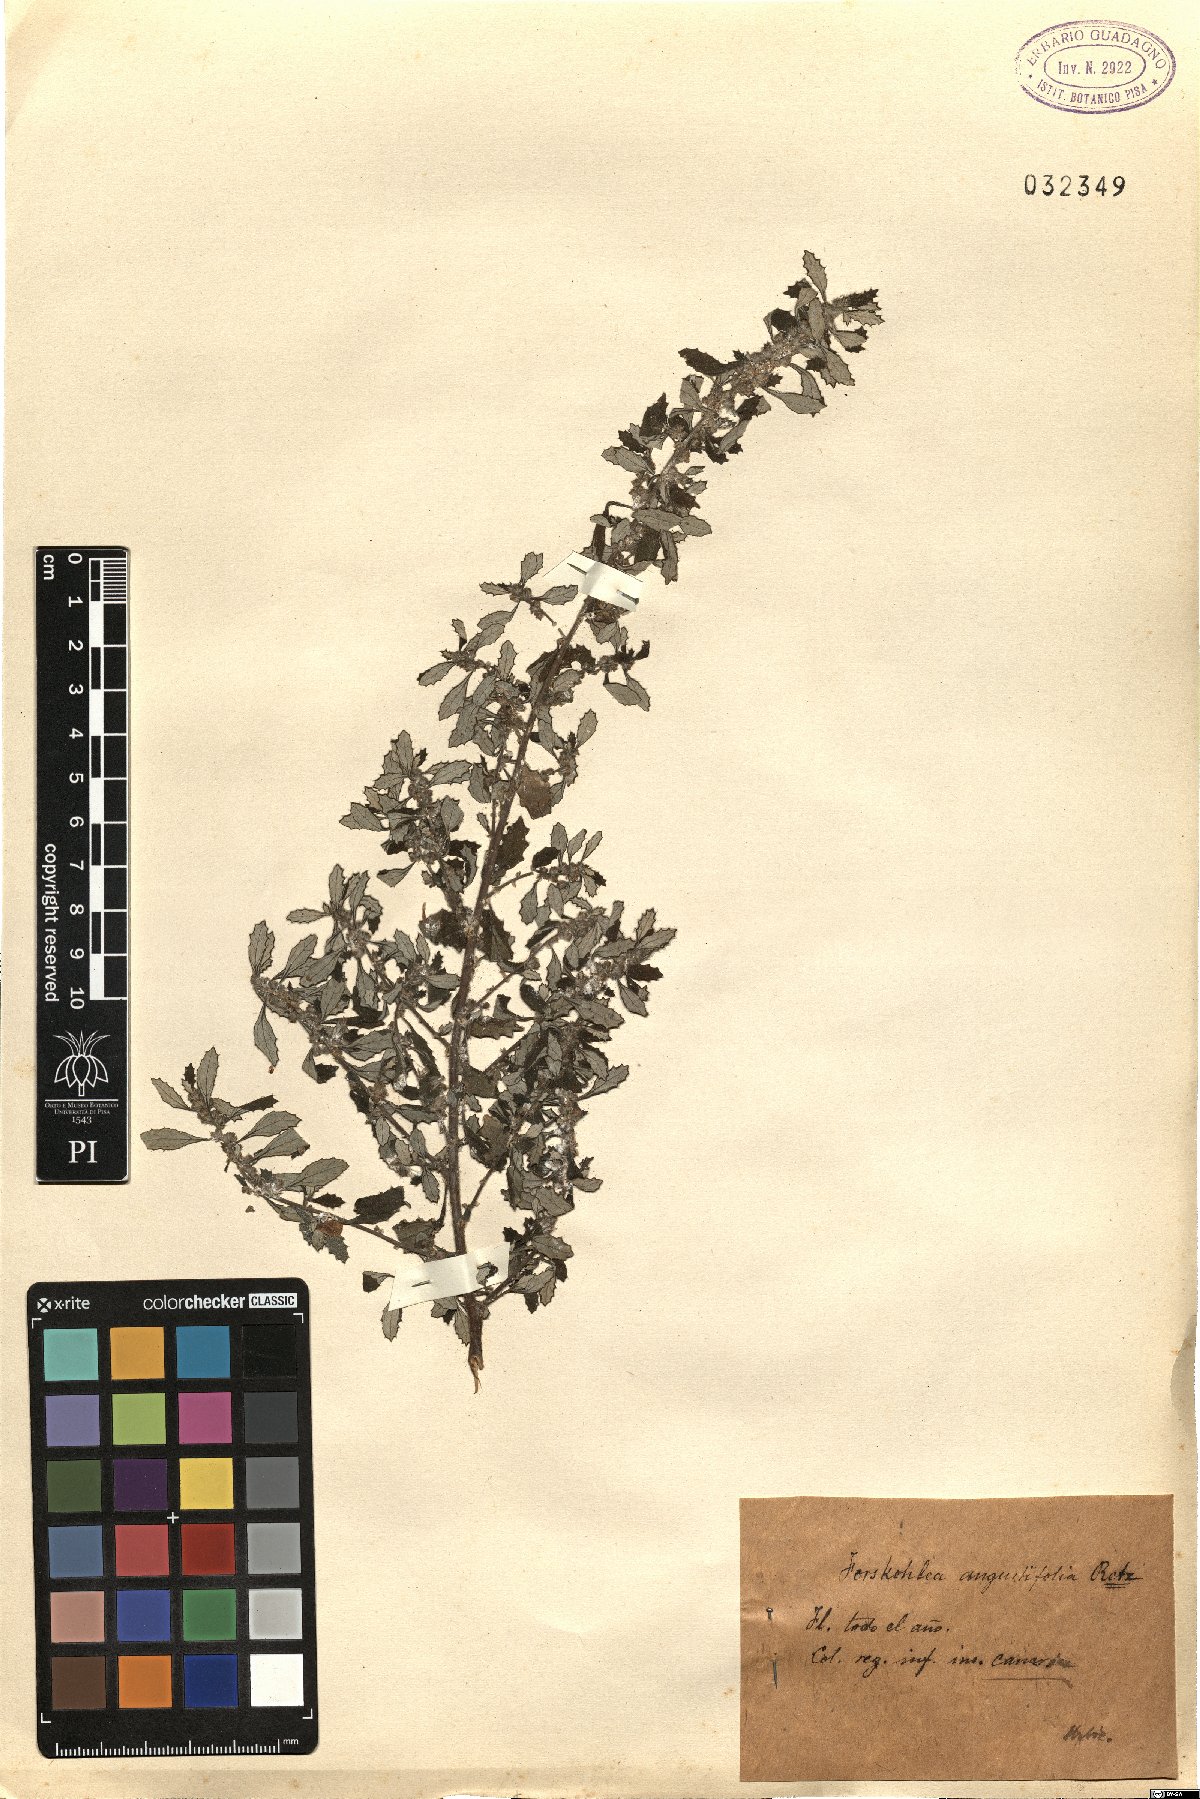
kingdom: Plantae
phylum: Tracheophyta
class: Magnoliopsida
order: Rosales
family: Urticaceae
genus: Forsskaolea
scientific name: Forsskaolea angustifolia
